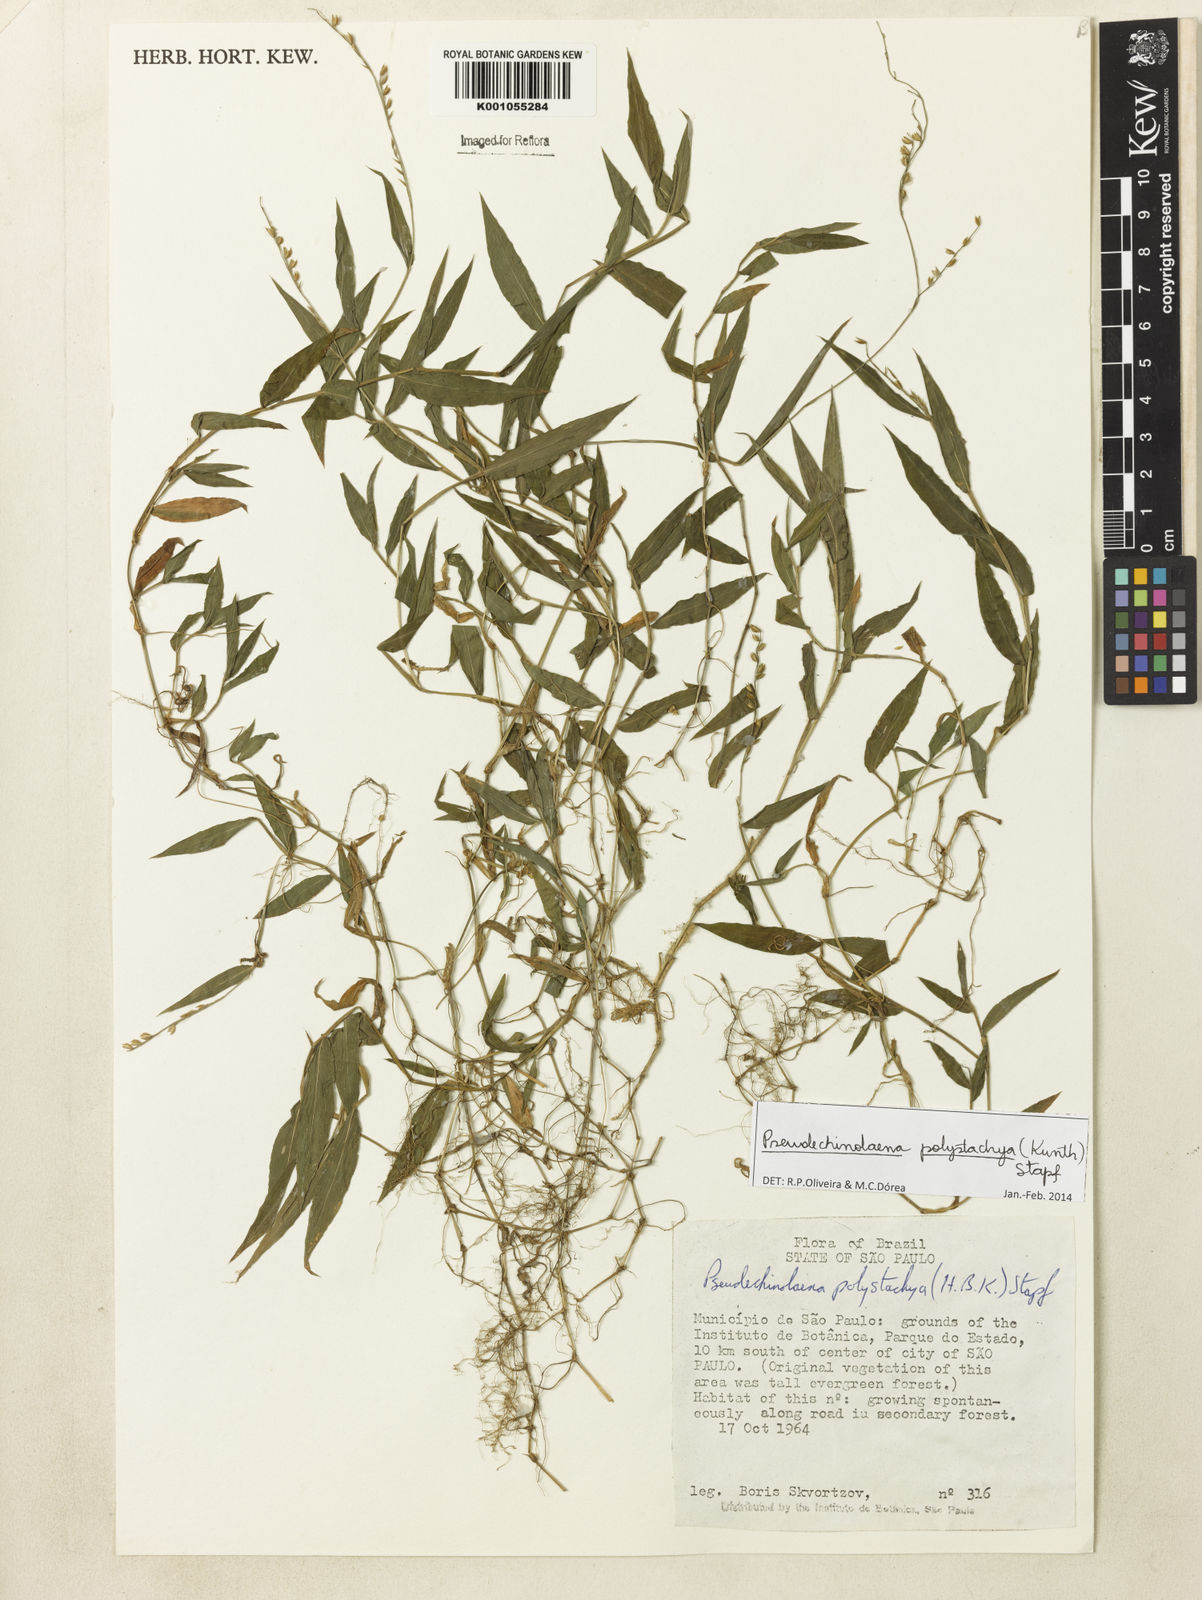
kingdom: Plantae
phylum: Tracheophyta
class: Liliopsida
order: Poales
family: Poaceae
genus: Pseudechinolaena
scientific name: Pseudechinolaena polystachya
